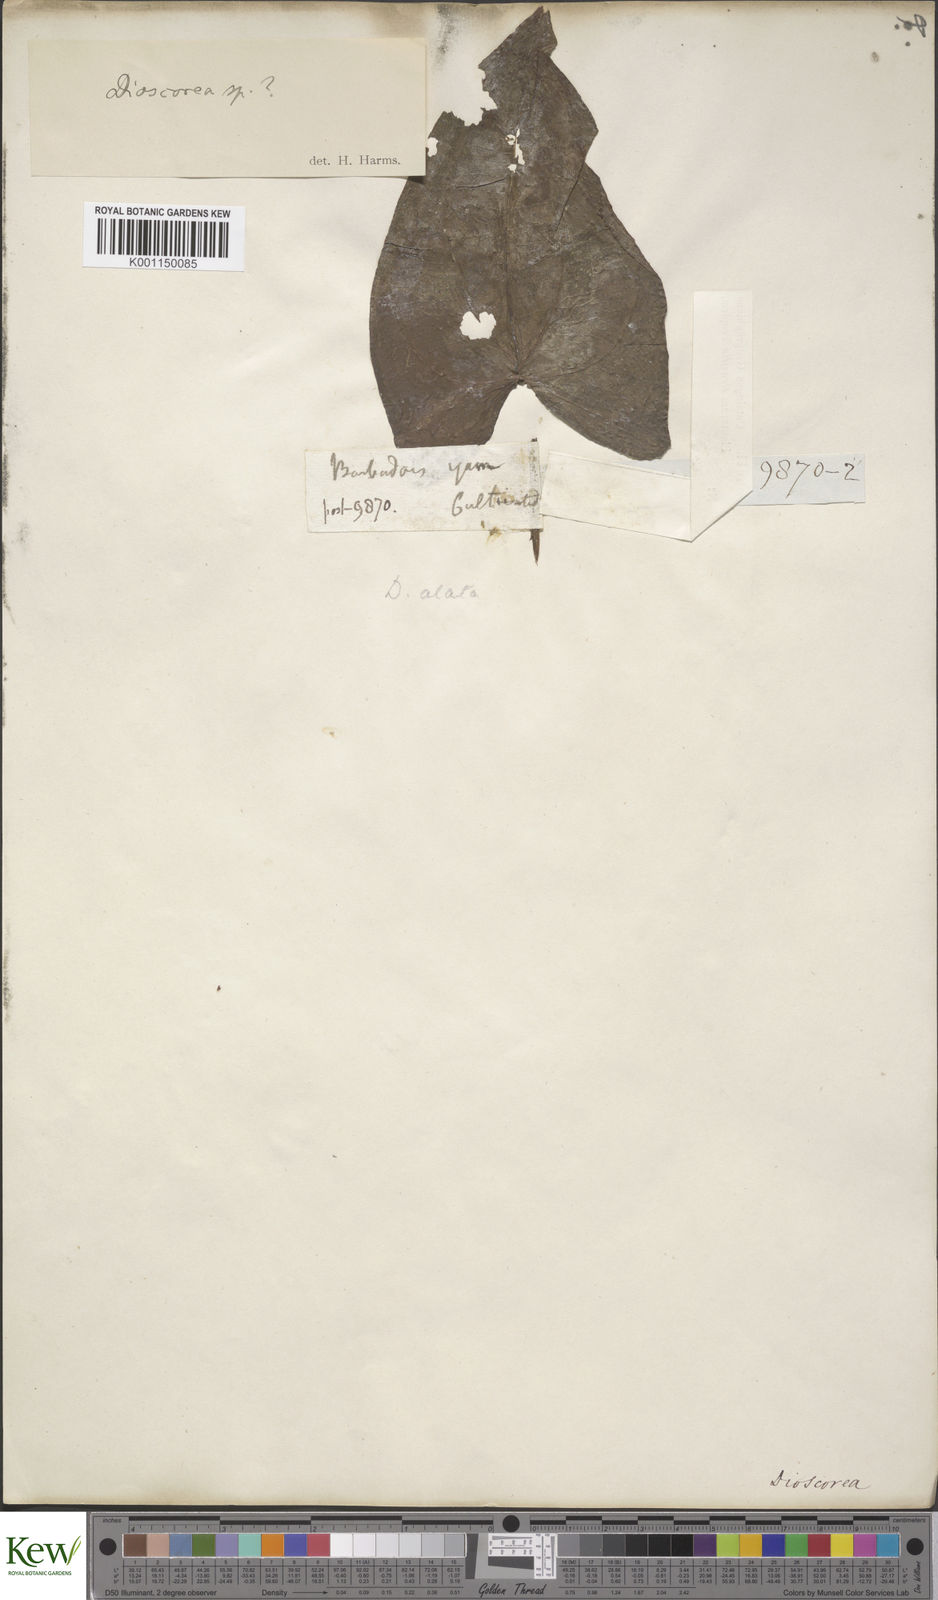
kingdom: Plantae
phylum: Tracheophyta
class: Liliopsida
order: Dioscoreales
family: Dioscoreaceae
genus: Dioscorea
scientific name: Dioscorea alata
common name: Water yam
